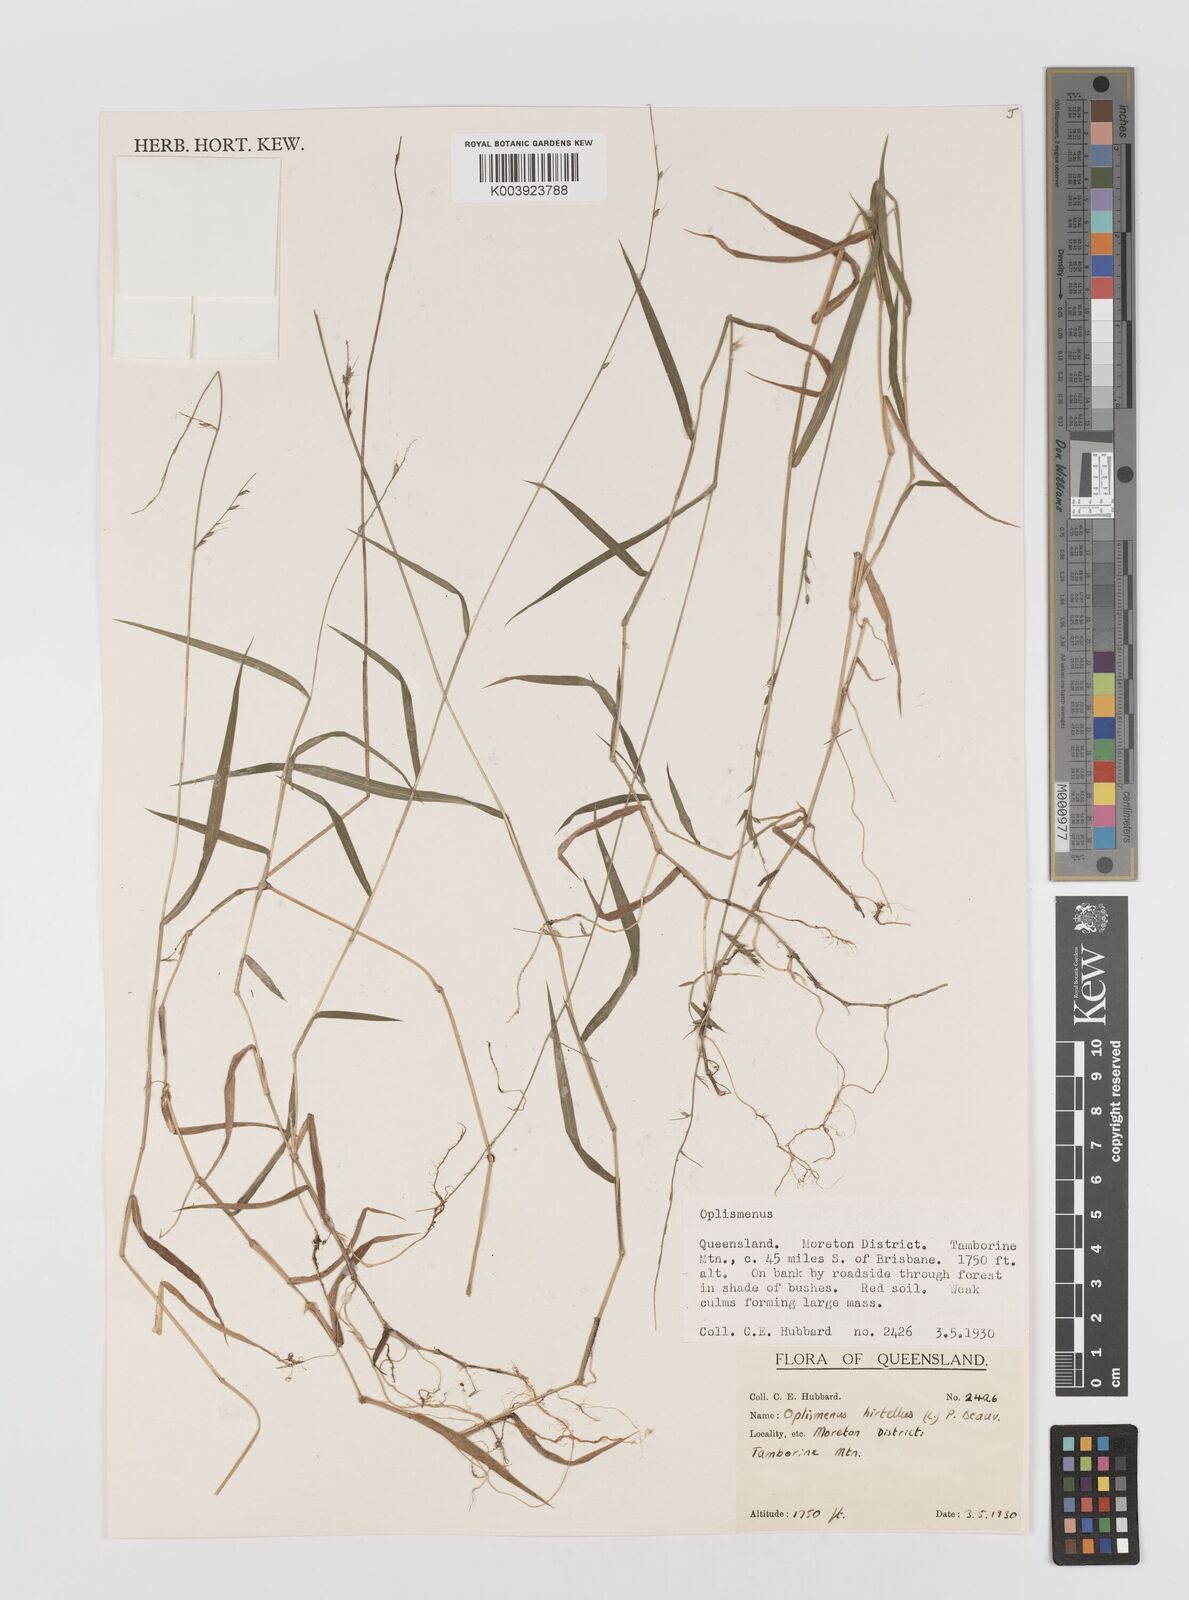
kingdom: Plantae
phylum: Tracheophyta
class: Liliopsida
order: Poales
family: Poaceae
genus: Oplismenus
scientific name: Oplismenus hirtellus
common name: Basketgrass
